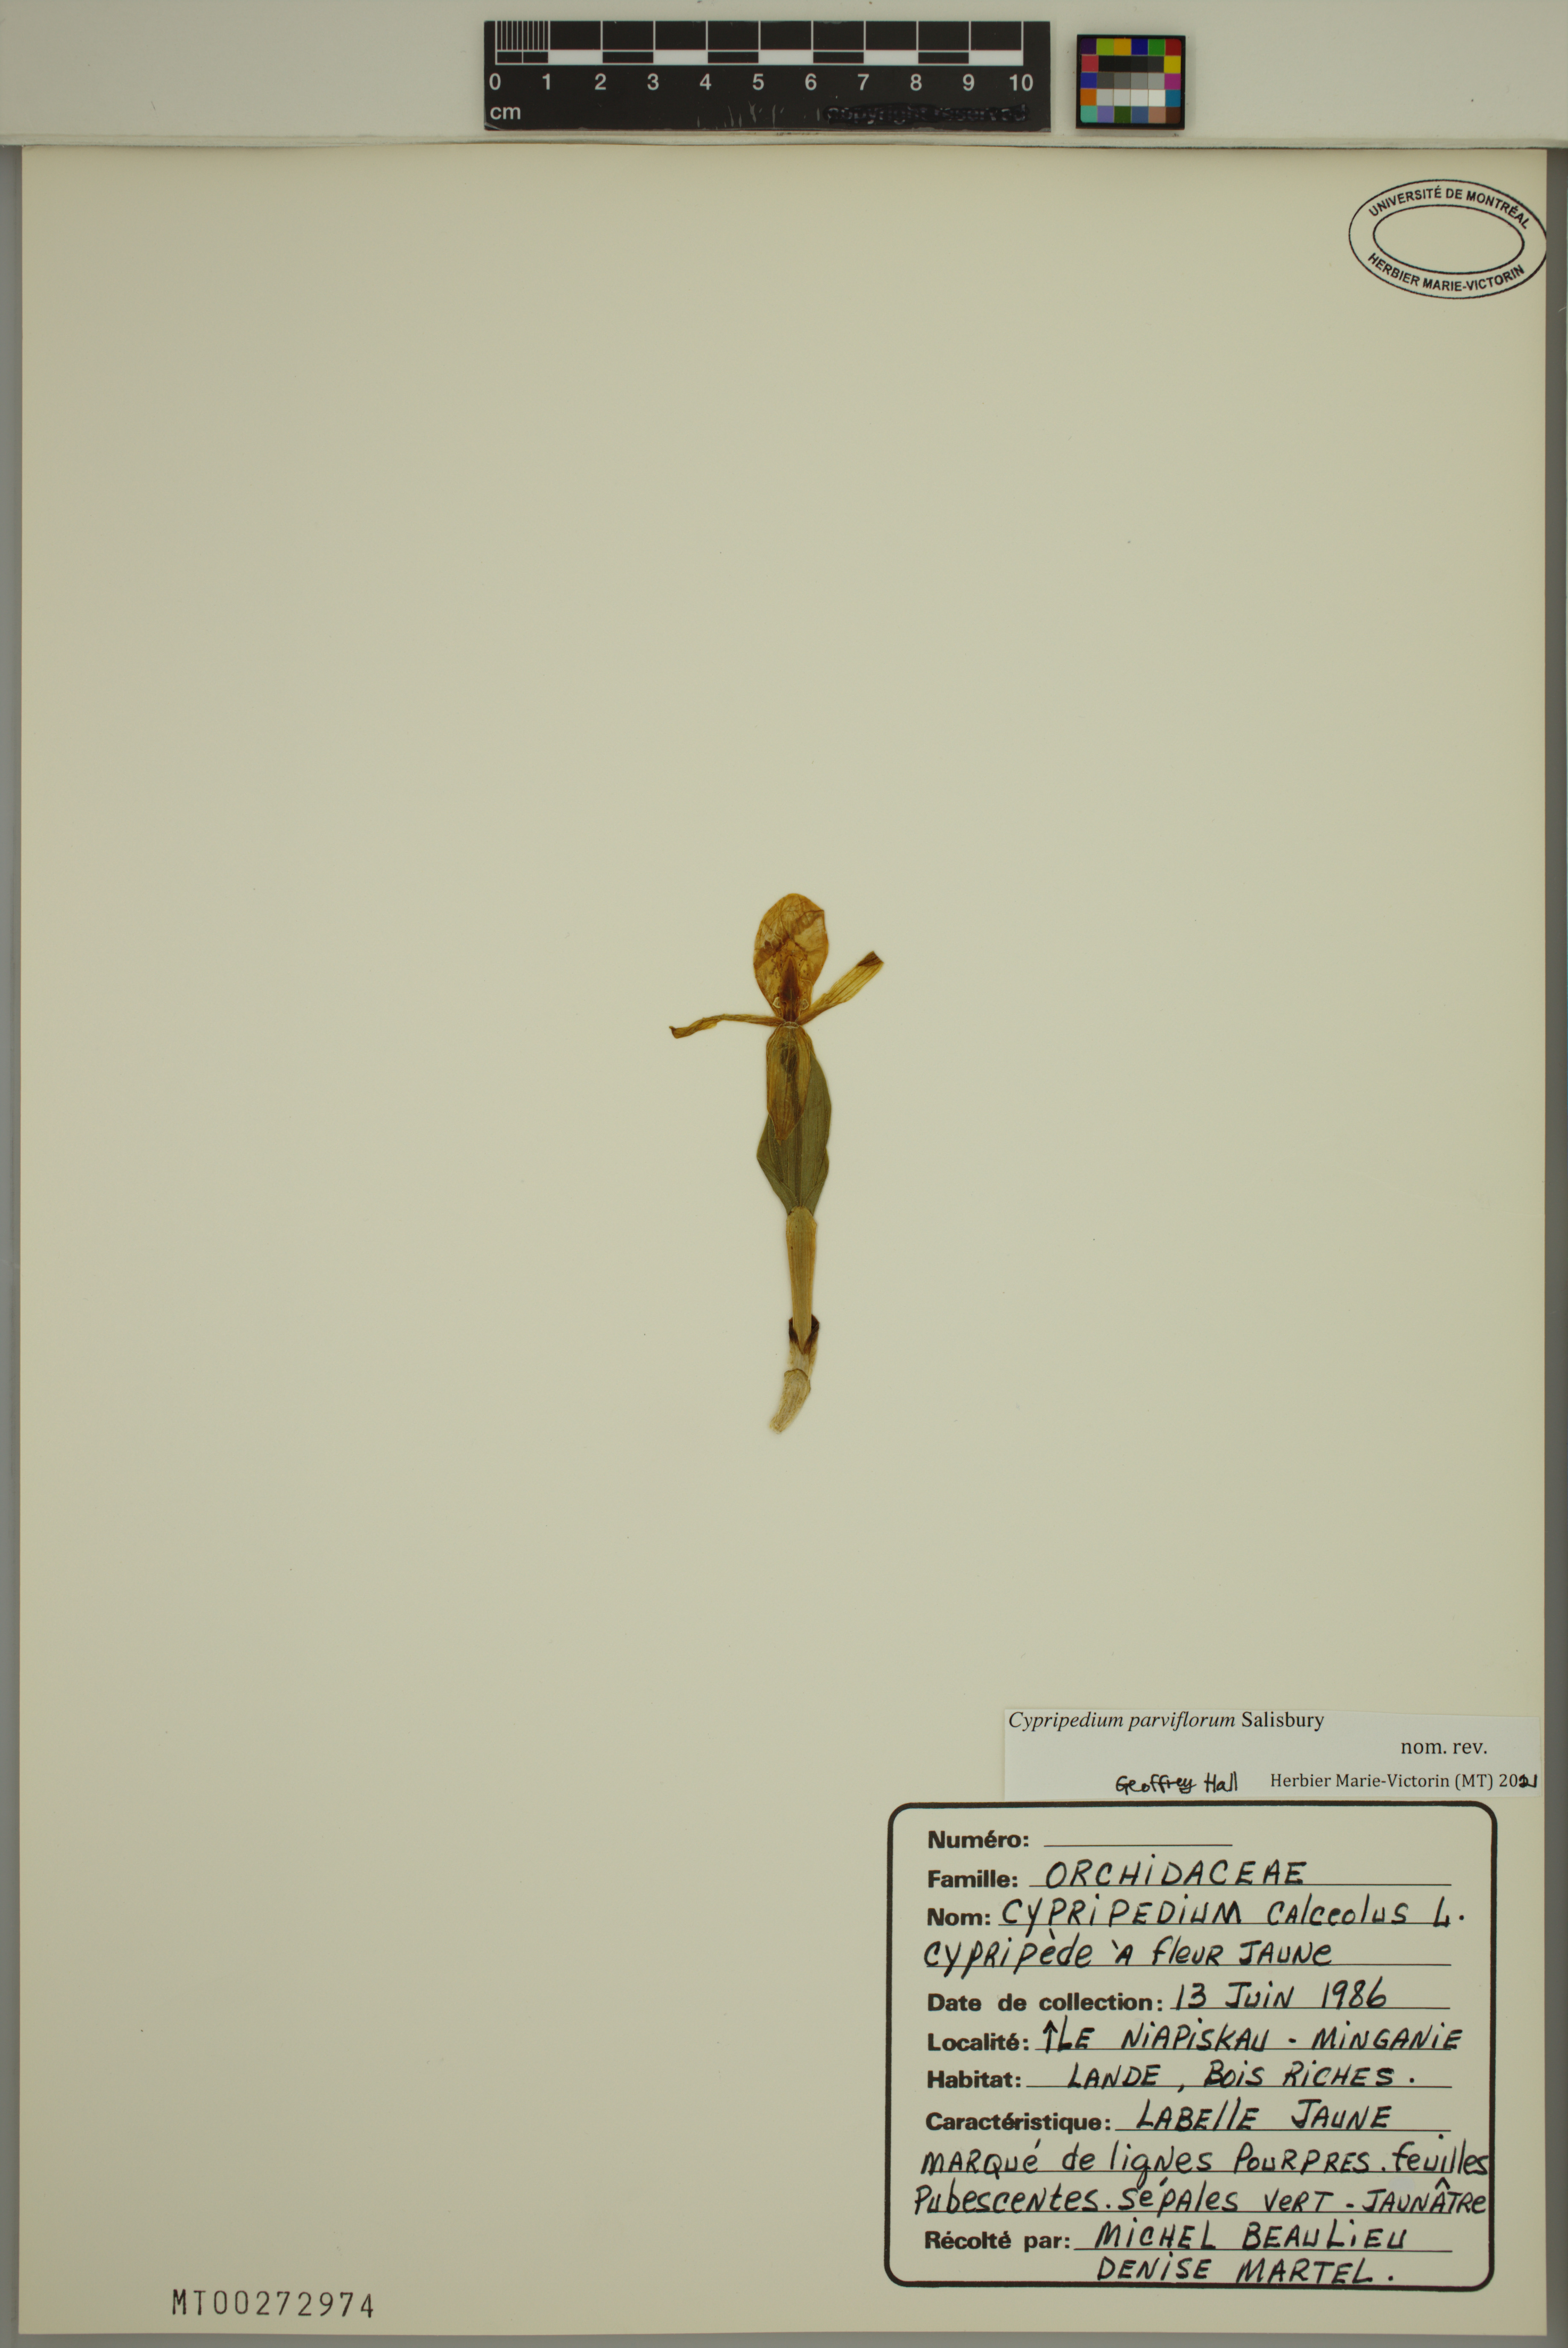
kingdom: Plantae
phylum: Tracheophyta
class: Liliopsida
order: Asparagales
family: Orchidaceae
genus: Cypripedium
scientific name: Cypripedium parviflorum
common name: American yellow lady's-slipper
